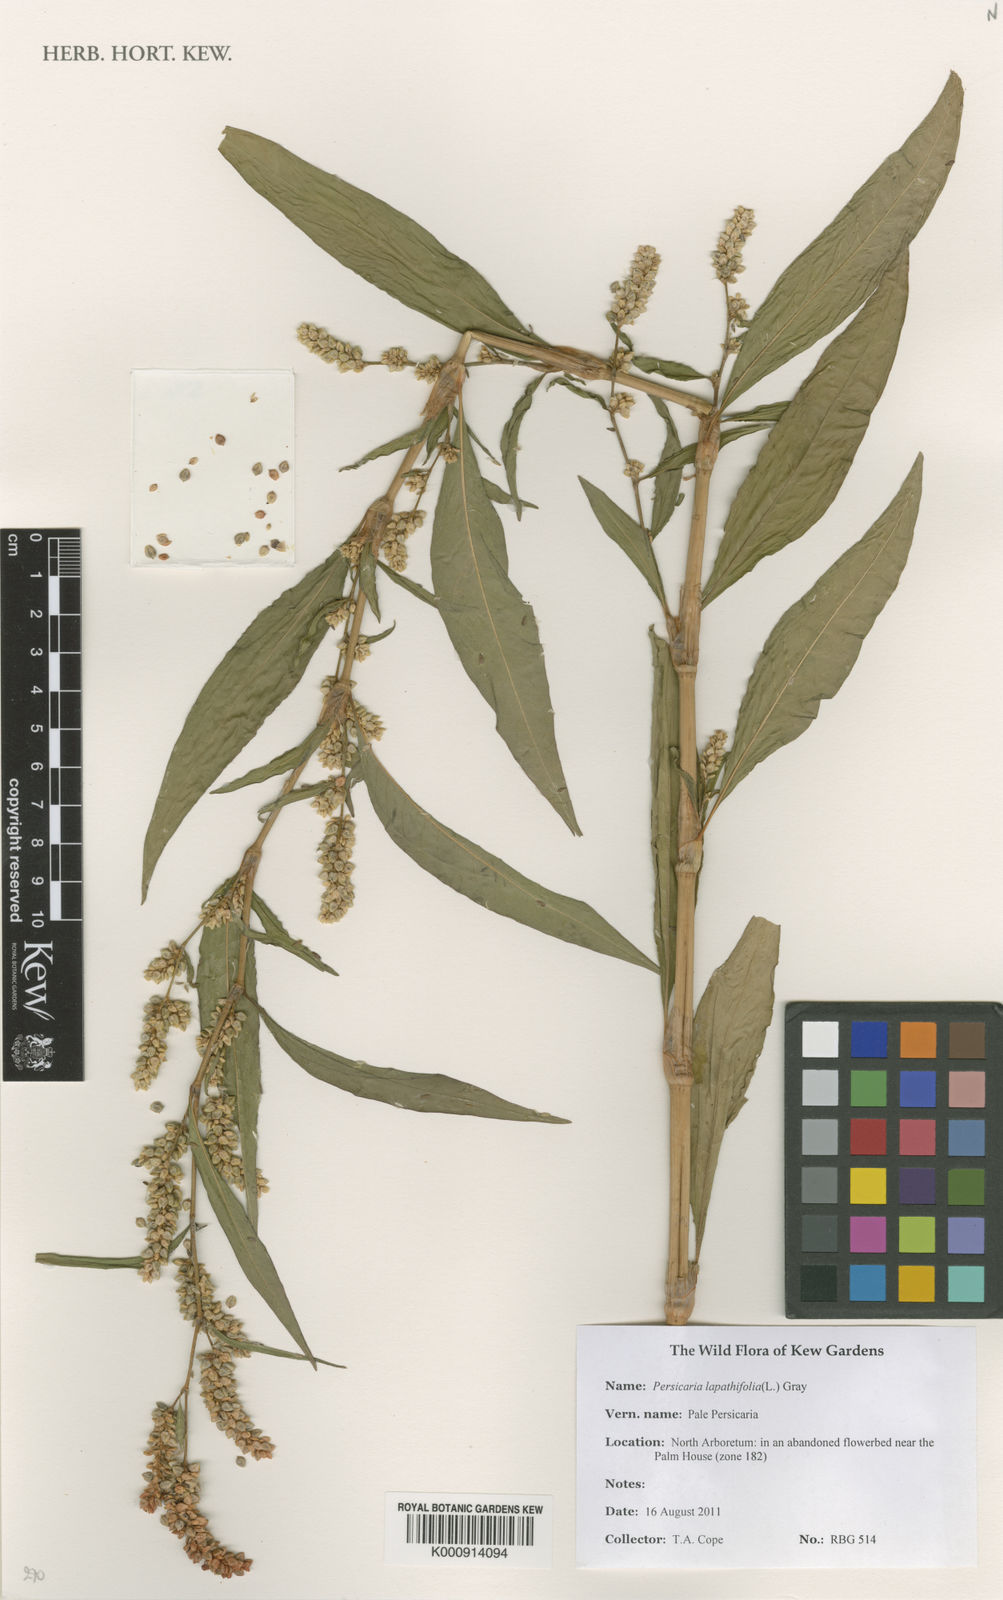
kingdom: Plantae
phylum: Tracheophyta
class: Magnoliopsida
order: Caryophyllales
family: Polygonaceae
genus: Persicaria
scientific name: Persicaria
